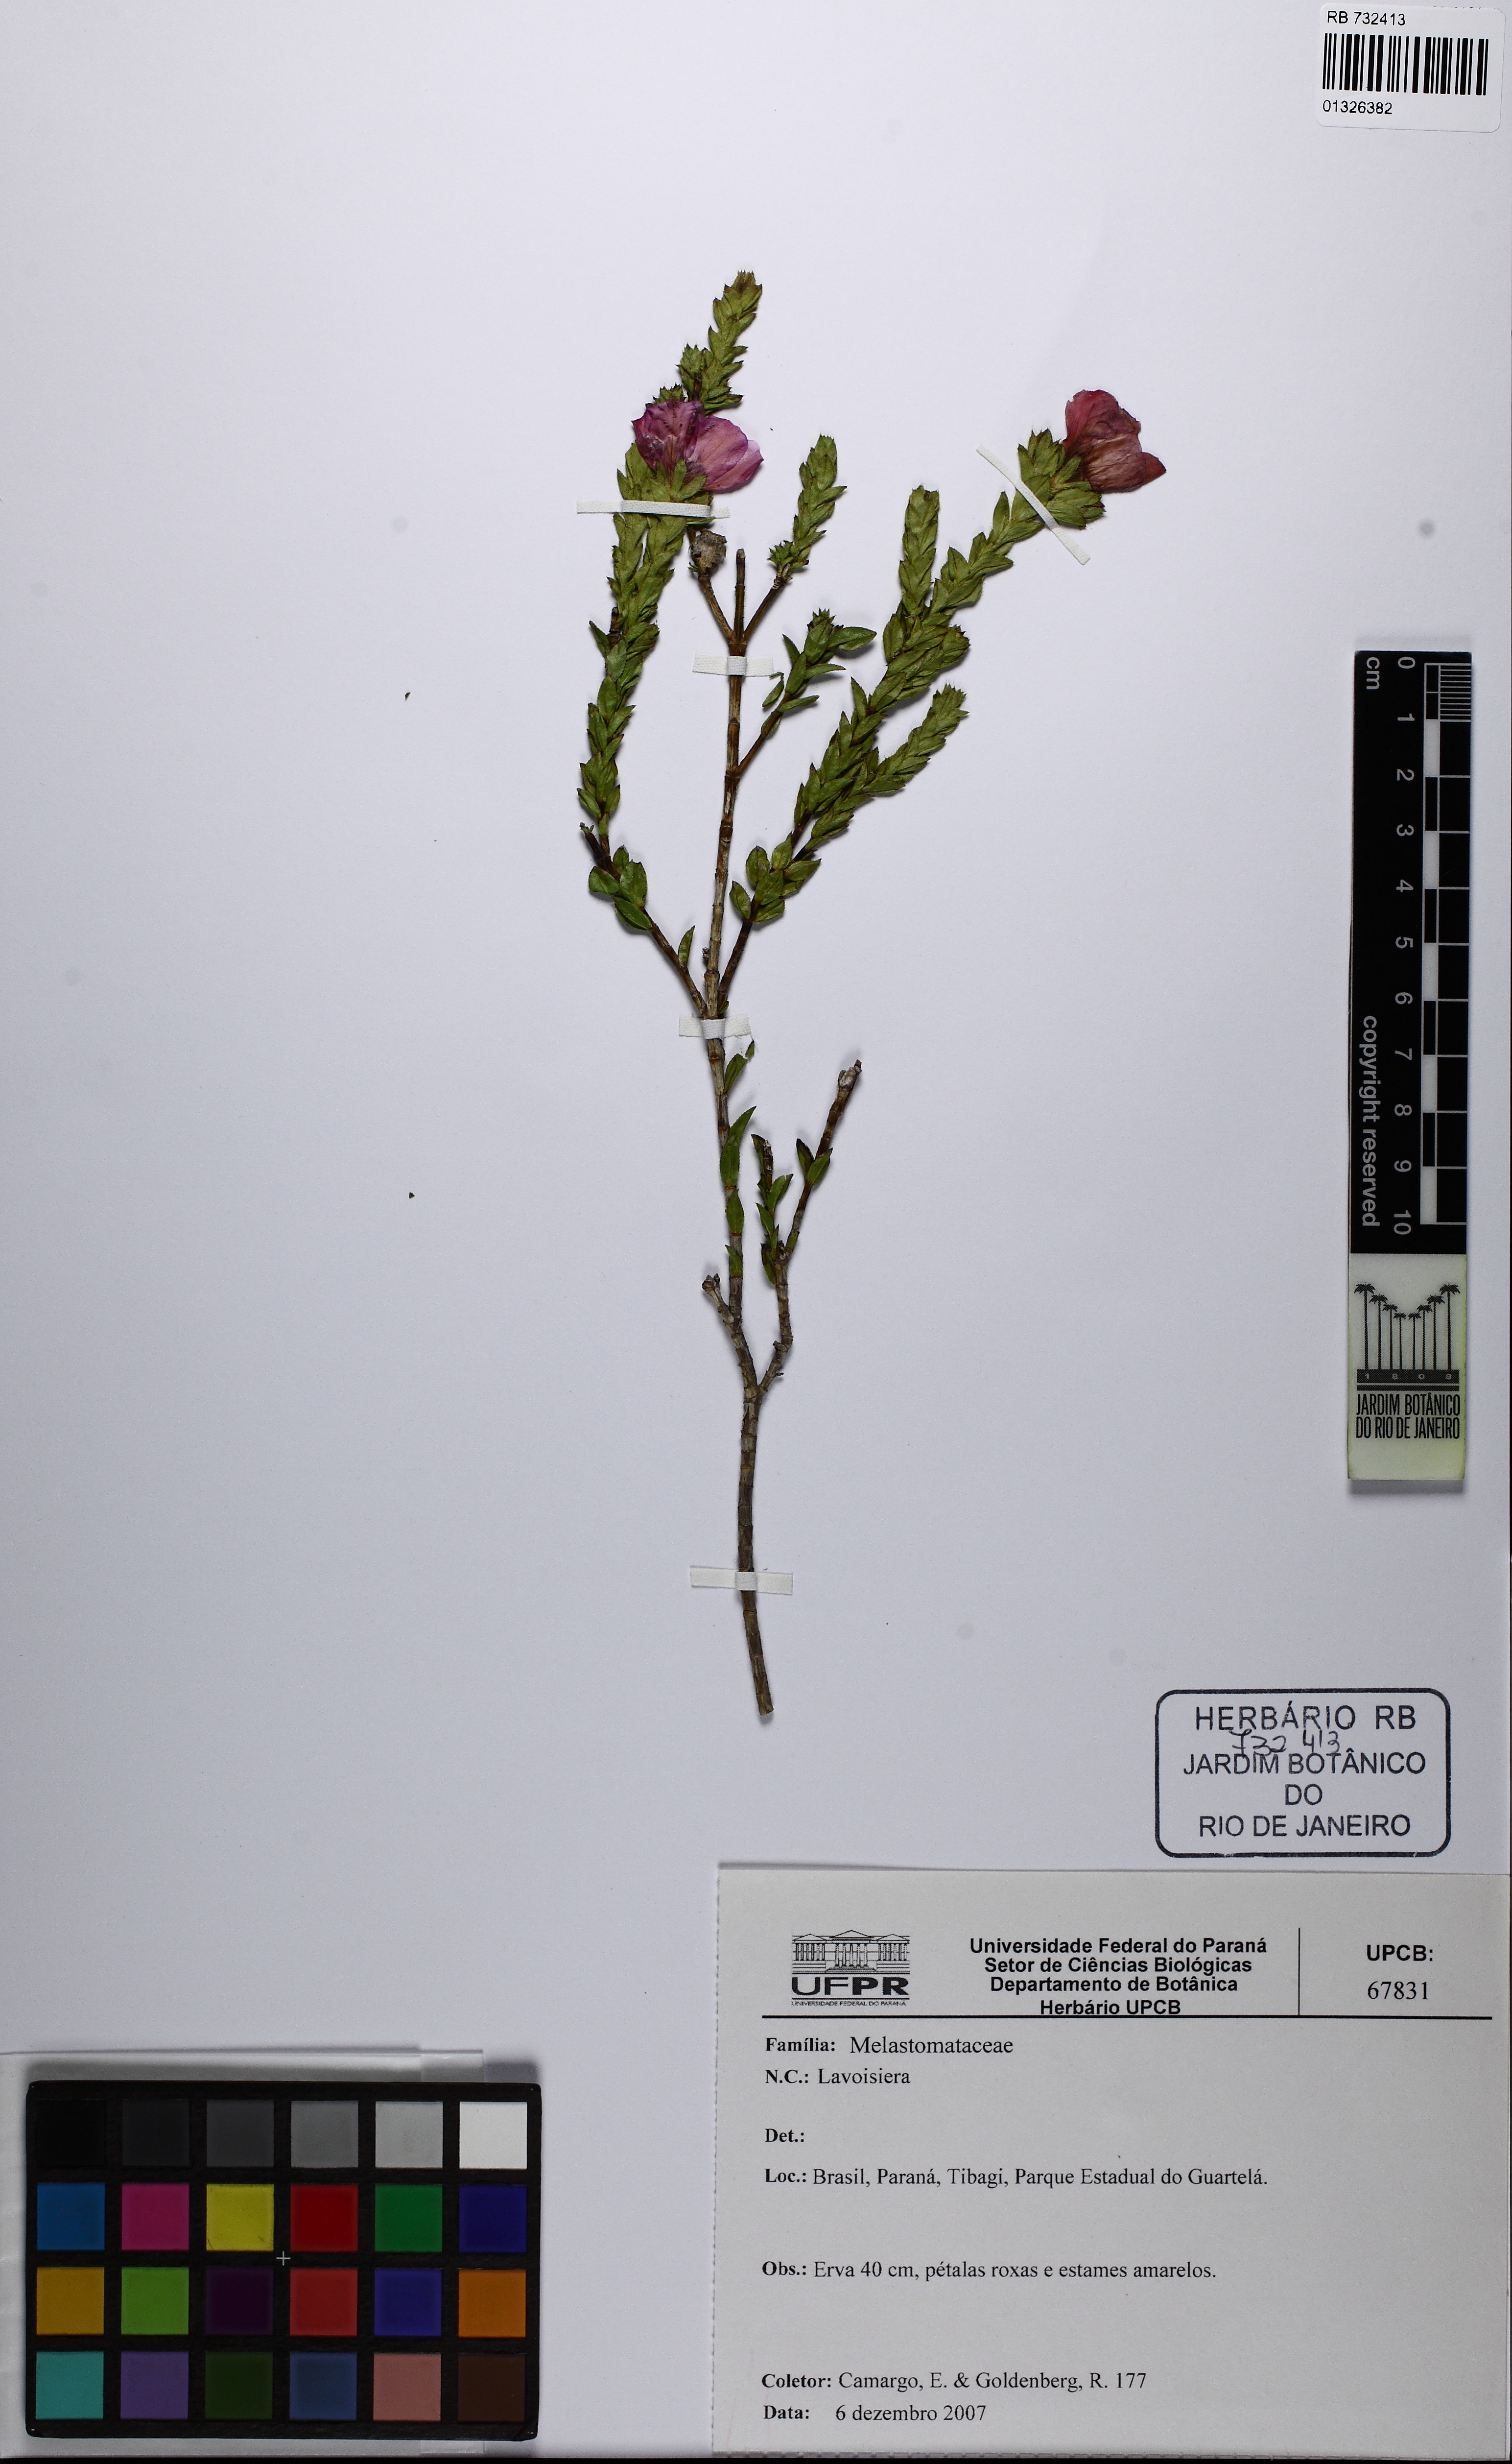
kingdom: Plantae
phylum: Tracheophyta
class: Magnoliopsida
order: Myrtales
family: Melastomataceae
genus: Microlicia
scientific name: Microlicia australis
